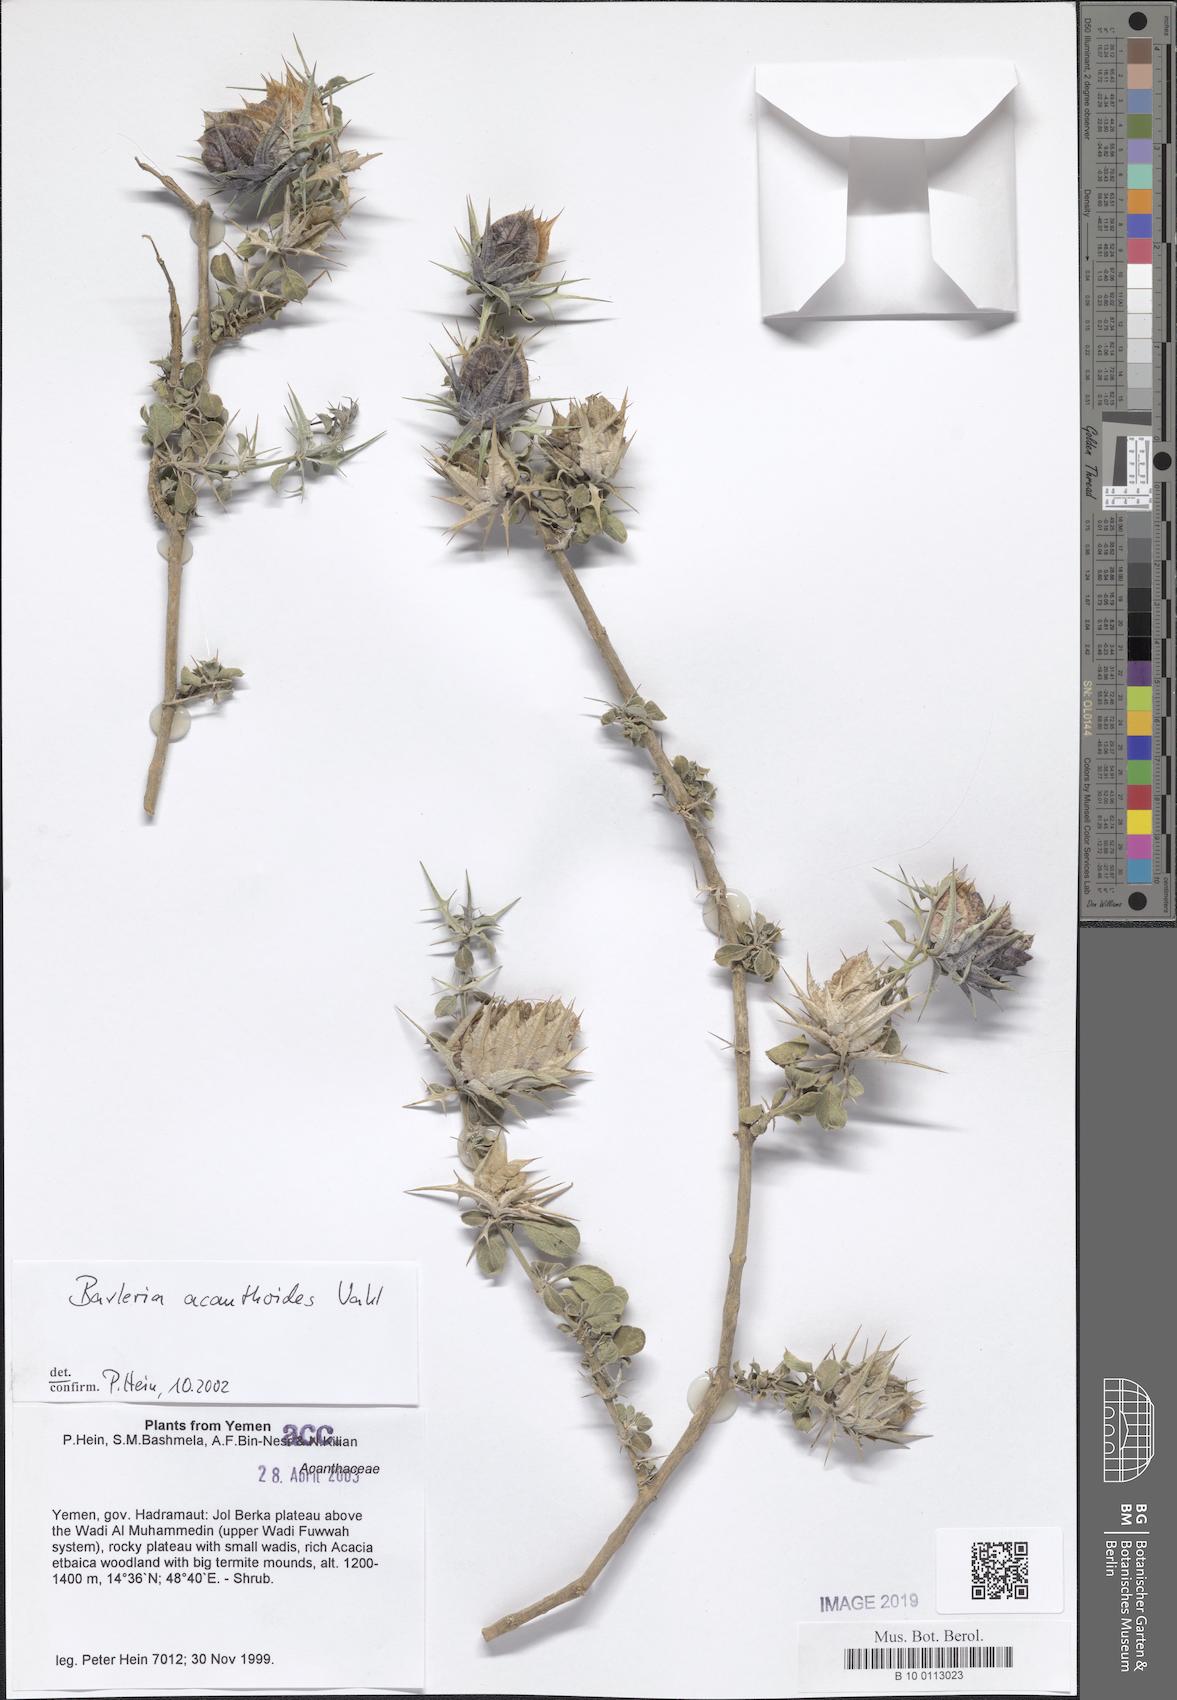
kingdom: Plantae
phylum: Tracheophyta
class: Magnoliopsida
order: Lamiales
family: Acanthaceae
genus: Barleria
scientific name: Barleria acanthoides
